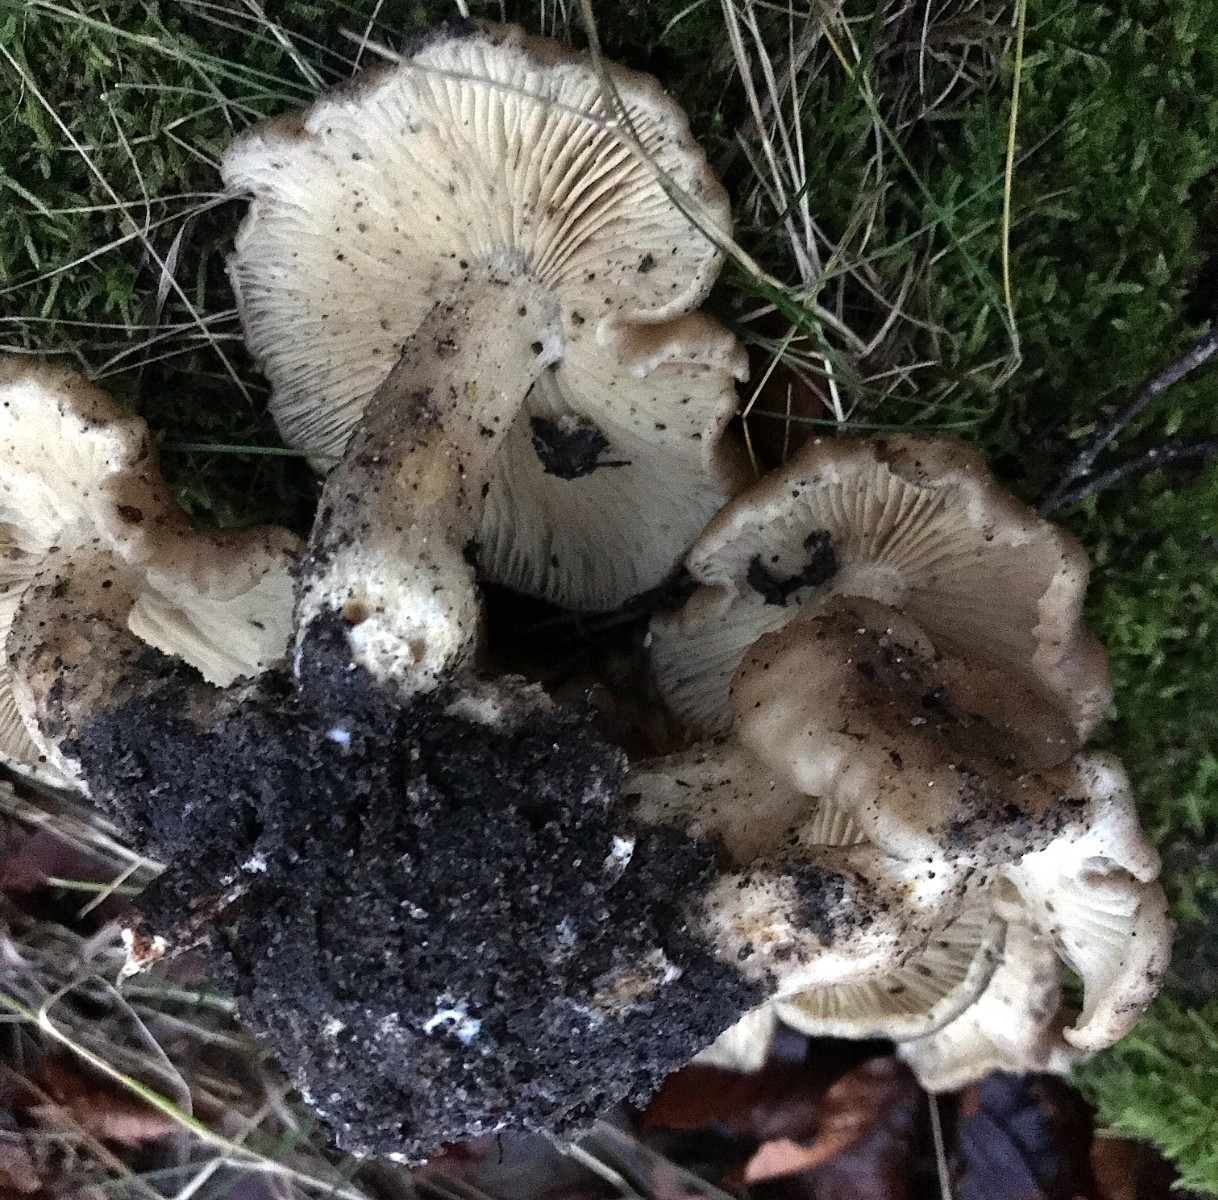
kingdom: Fungi
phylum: Basidiomycota
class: Agaricomycetes
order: Agaricales
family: Lyophyllaceae
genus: Lyophyllum
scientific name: Lyophyllum decastes
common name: Clustered domecap
